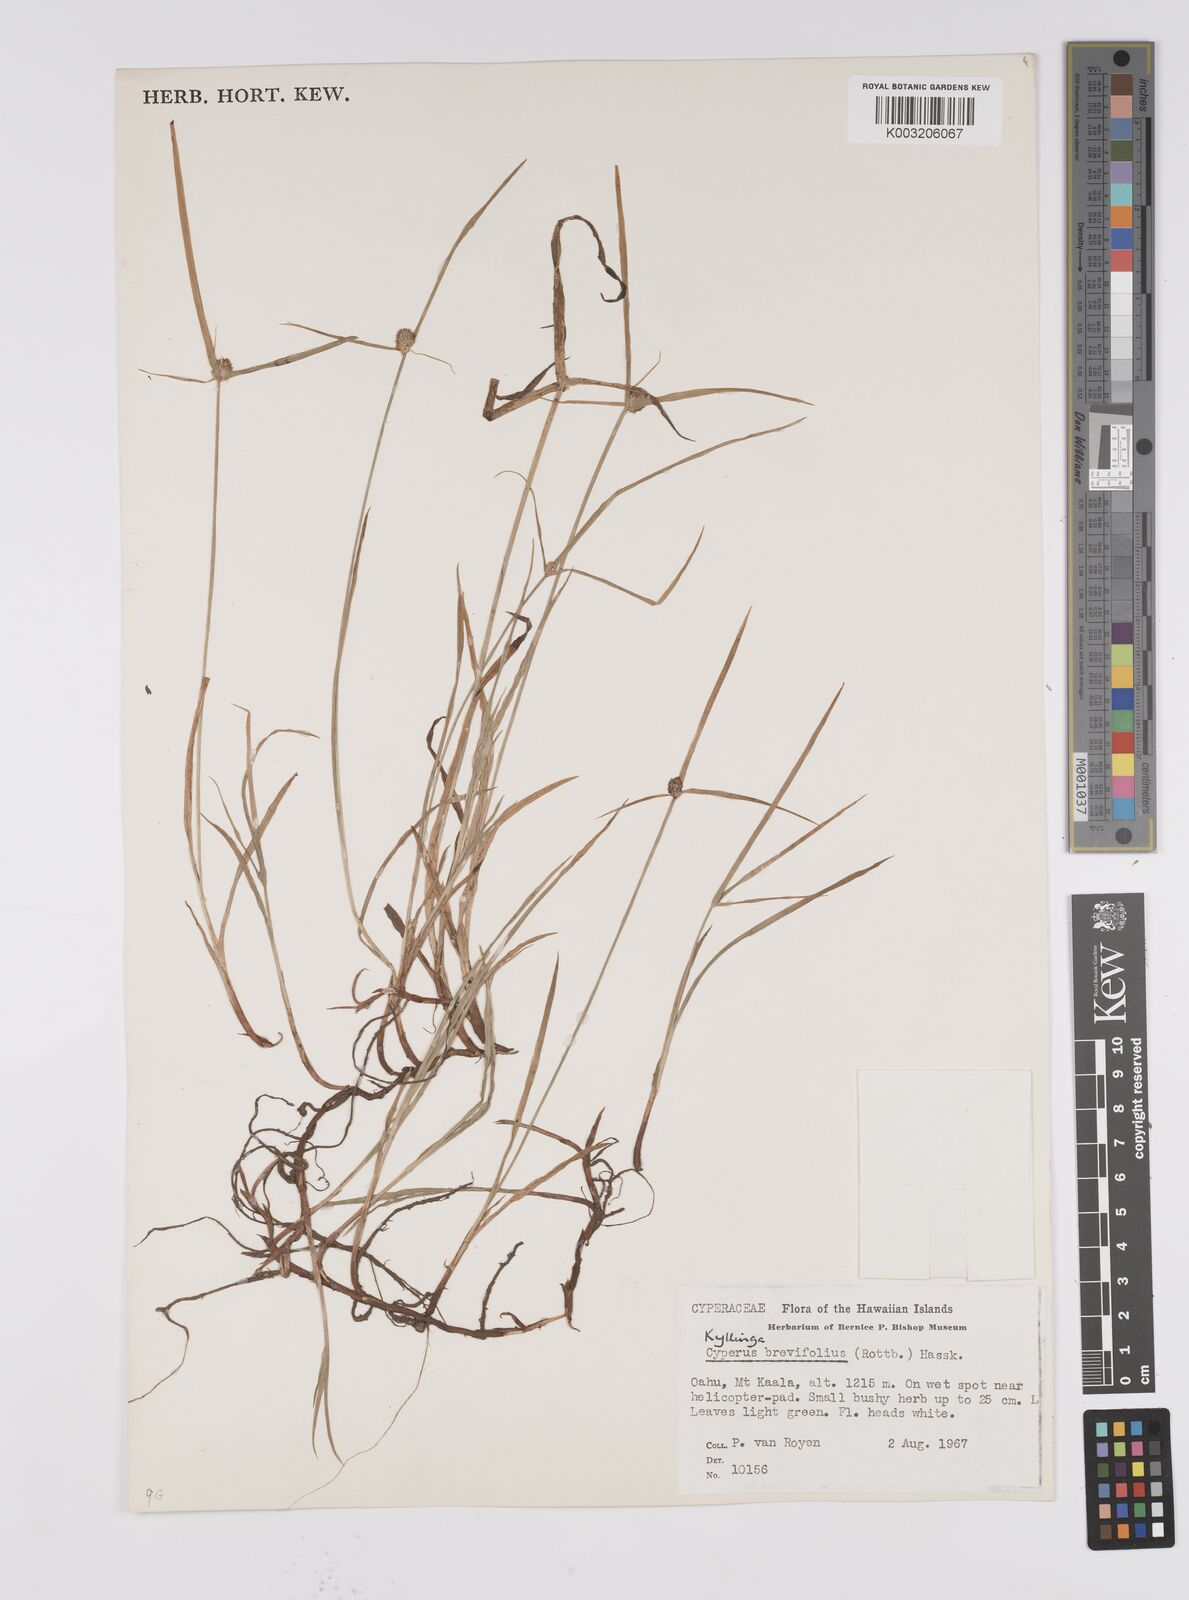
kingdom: Plantae
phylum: Tracheophyta
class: Liliopsida
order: Poales
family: Cyperaceae
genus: Cyperus
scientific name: Cyperus brevifolius
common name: Globe kyllinga
